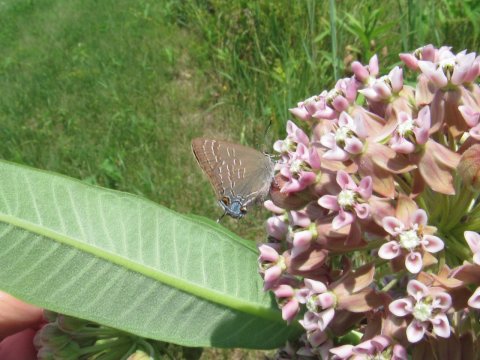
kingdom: Animalia
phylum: Arthropoda
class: Insecta
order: Lepidoptera
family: Lycaenidae
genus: Satyrium
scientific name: Satyrium calanus
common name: Banded Hairstreak
